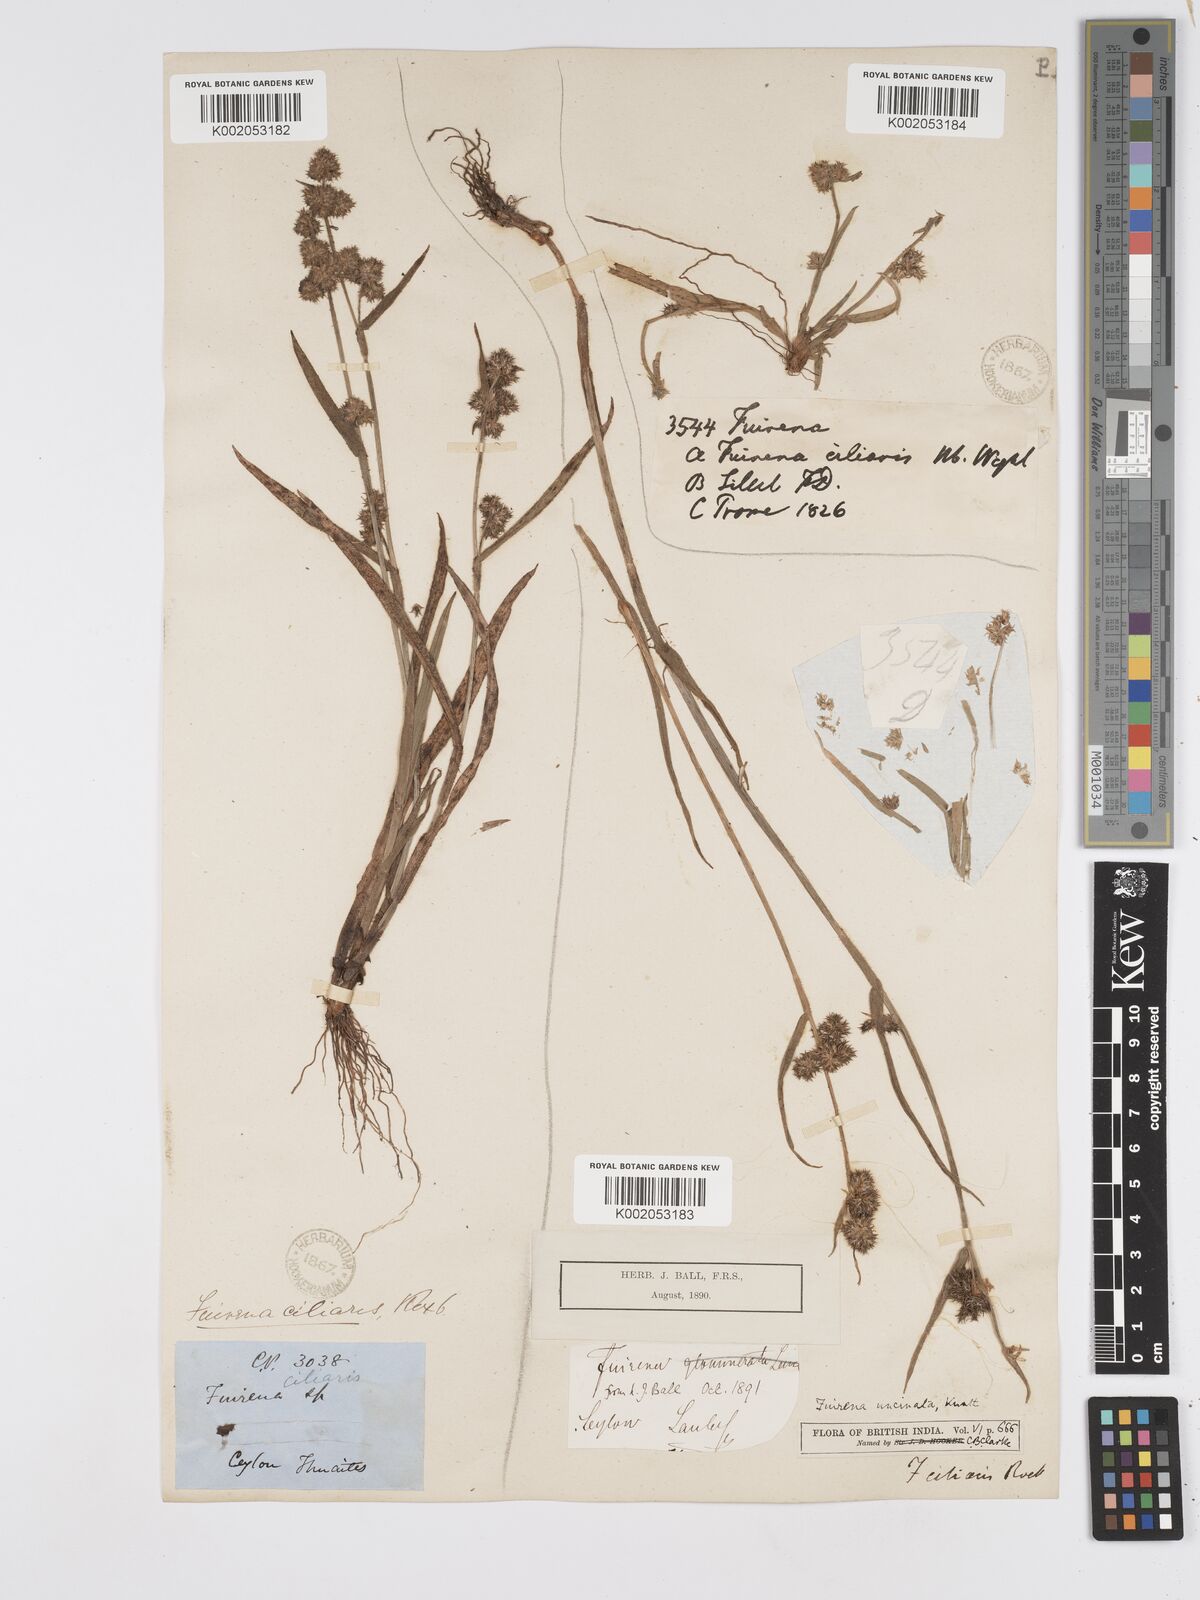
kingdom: Plantae
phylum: Tracheophyta
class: Liliopsida
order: Poales
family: Cyperaceae
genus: Fuirena
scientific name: Fuirena uncinata
